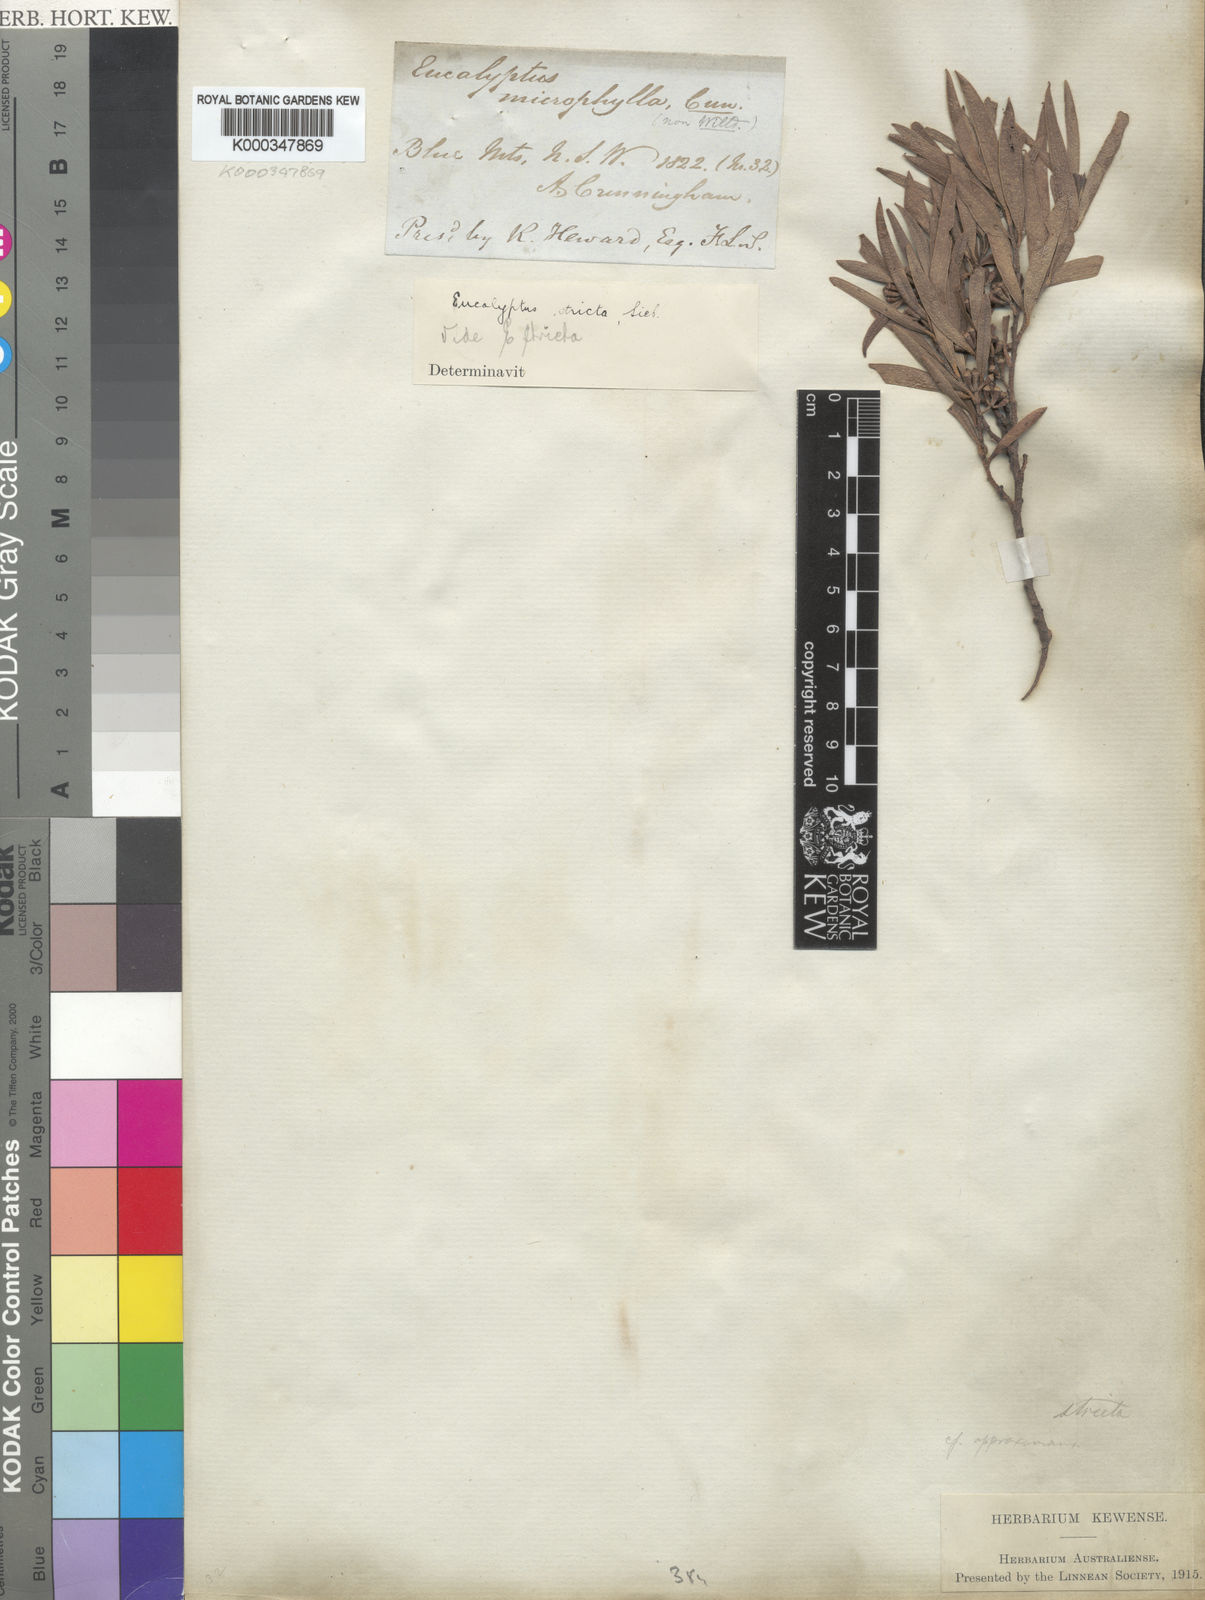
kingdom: Plantae
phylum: Tracheophyta
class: Magnoliopsida
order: Myrtales
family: Myrtaceae
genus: Eucalyptus
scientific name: Eucalyptus cunninghamii
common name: Cliff mallee ash
